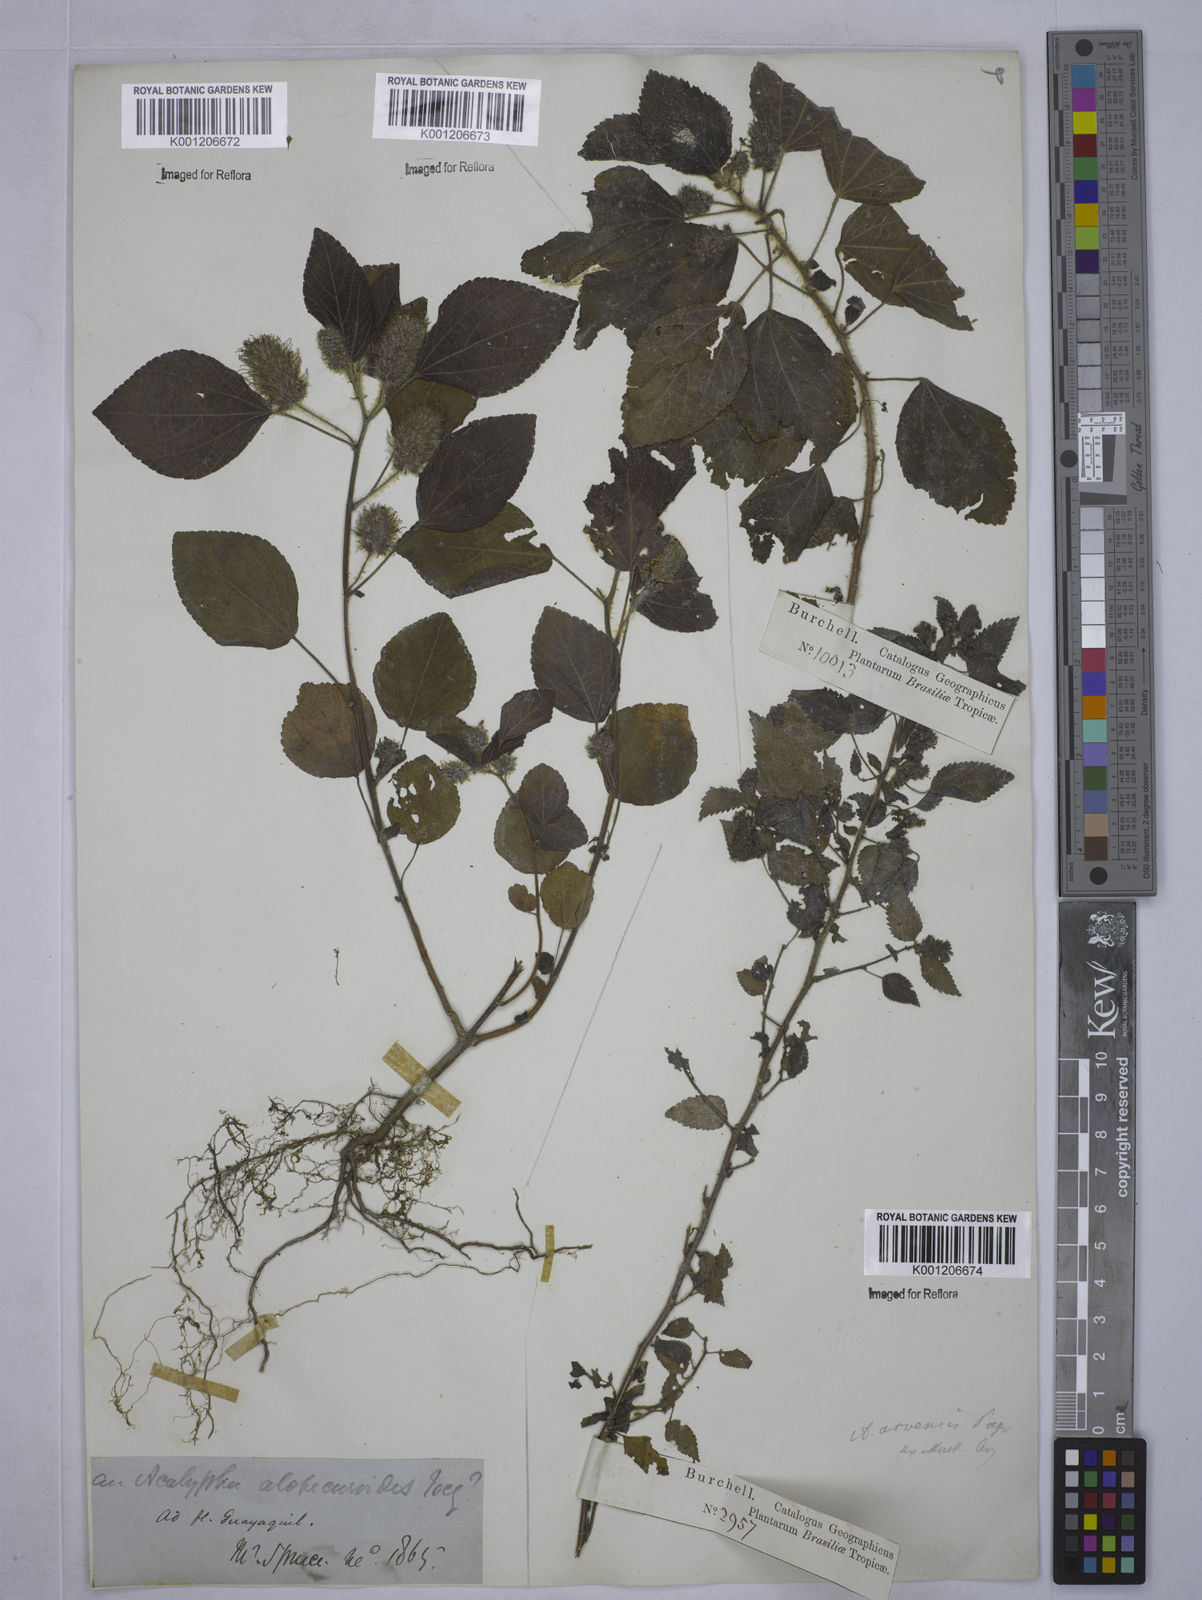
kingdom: Plantae
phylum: Tracheophyta
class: Magnoliopsida
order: Malpighiales
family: Euphorbiaceae
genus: Acalypha
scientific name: Acalypha arvensis
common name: Field copperleaf
